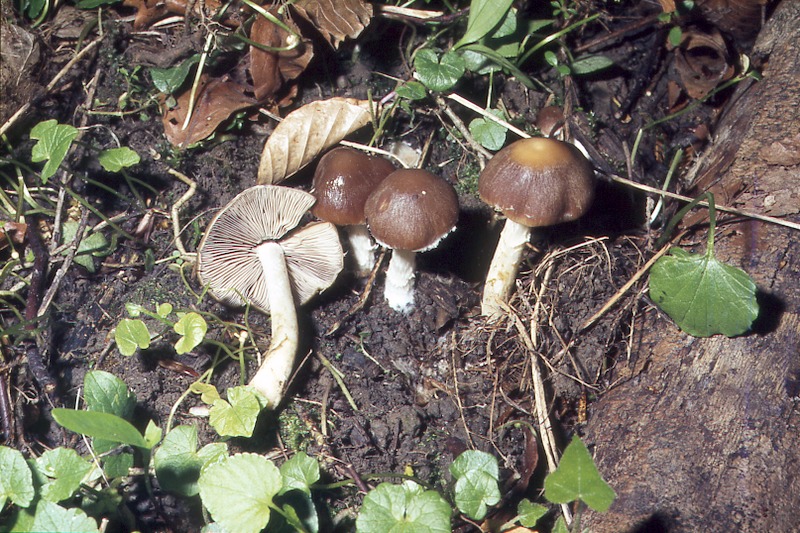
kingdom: Fungi
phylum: Basidiomycota
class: Agaricomycetes
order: Agaricales
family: Psathyrellaceae
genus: Psathyrella
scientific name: Psathyrella spadiceogrisea
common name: Spring brittlestem
